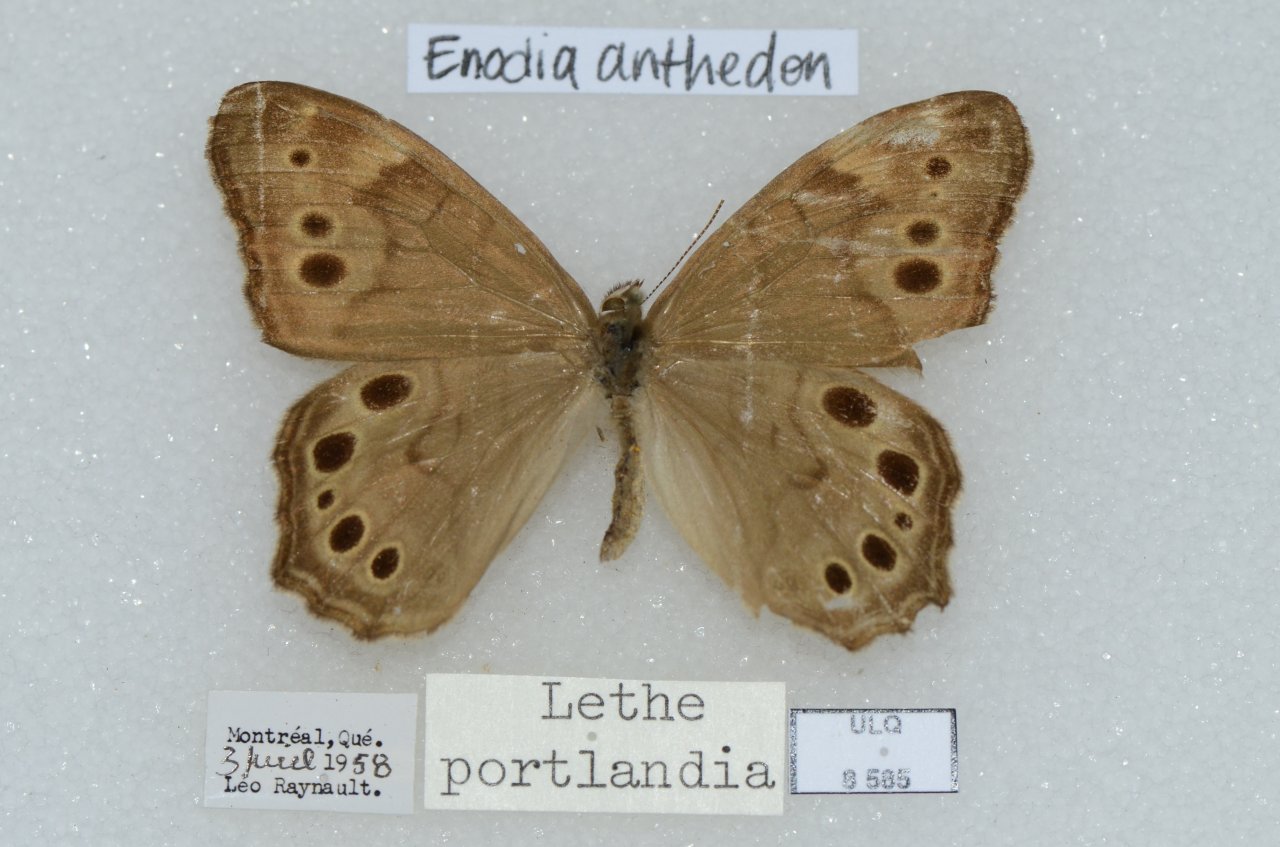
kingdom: Animalia
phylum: Arthropoda
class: Insecta
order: Lepidoptera
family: Nymphalidae
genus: Lethe
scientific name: Lethe anthedon
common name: Northern Pearly-Eye
